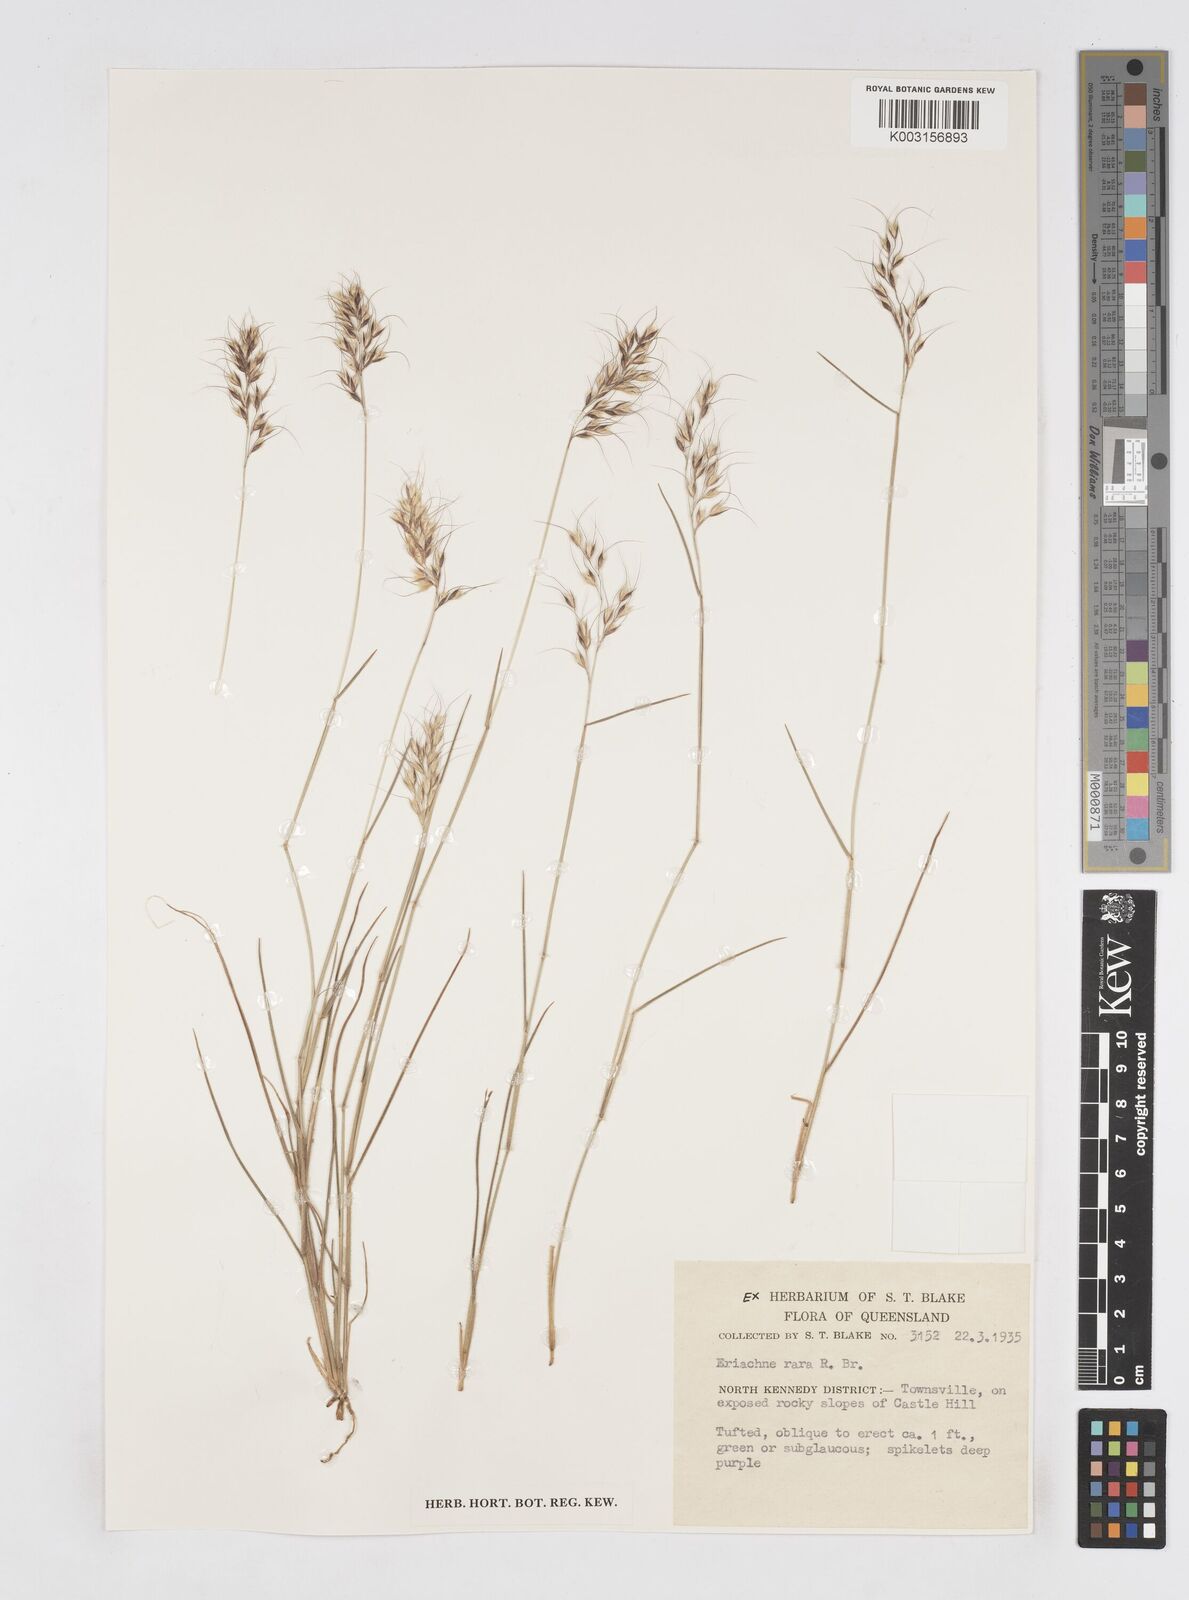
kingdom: Plantae
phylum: Tracheophyta
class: Liliopsida
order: Poales
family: Poaceae
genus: Eriachne
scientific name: Eriachne rara
